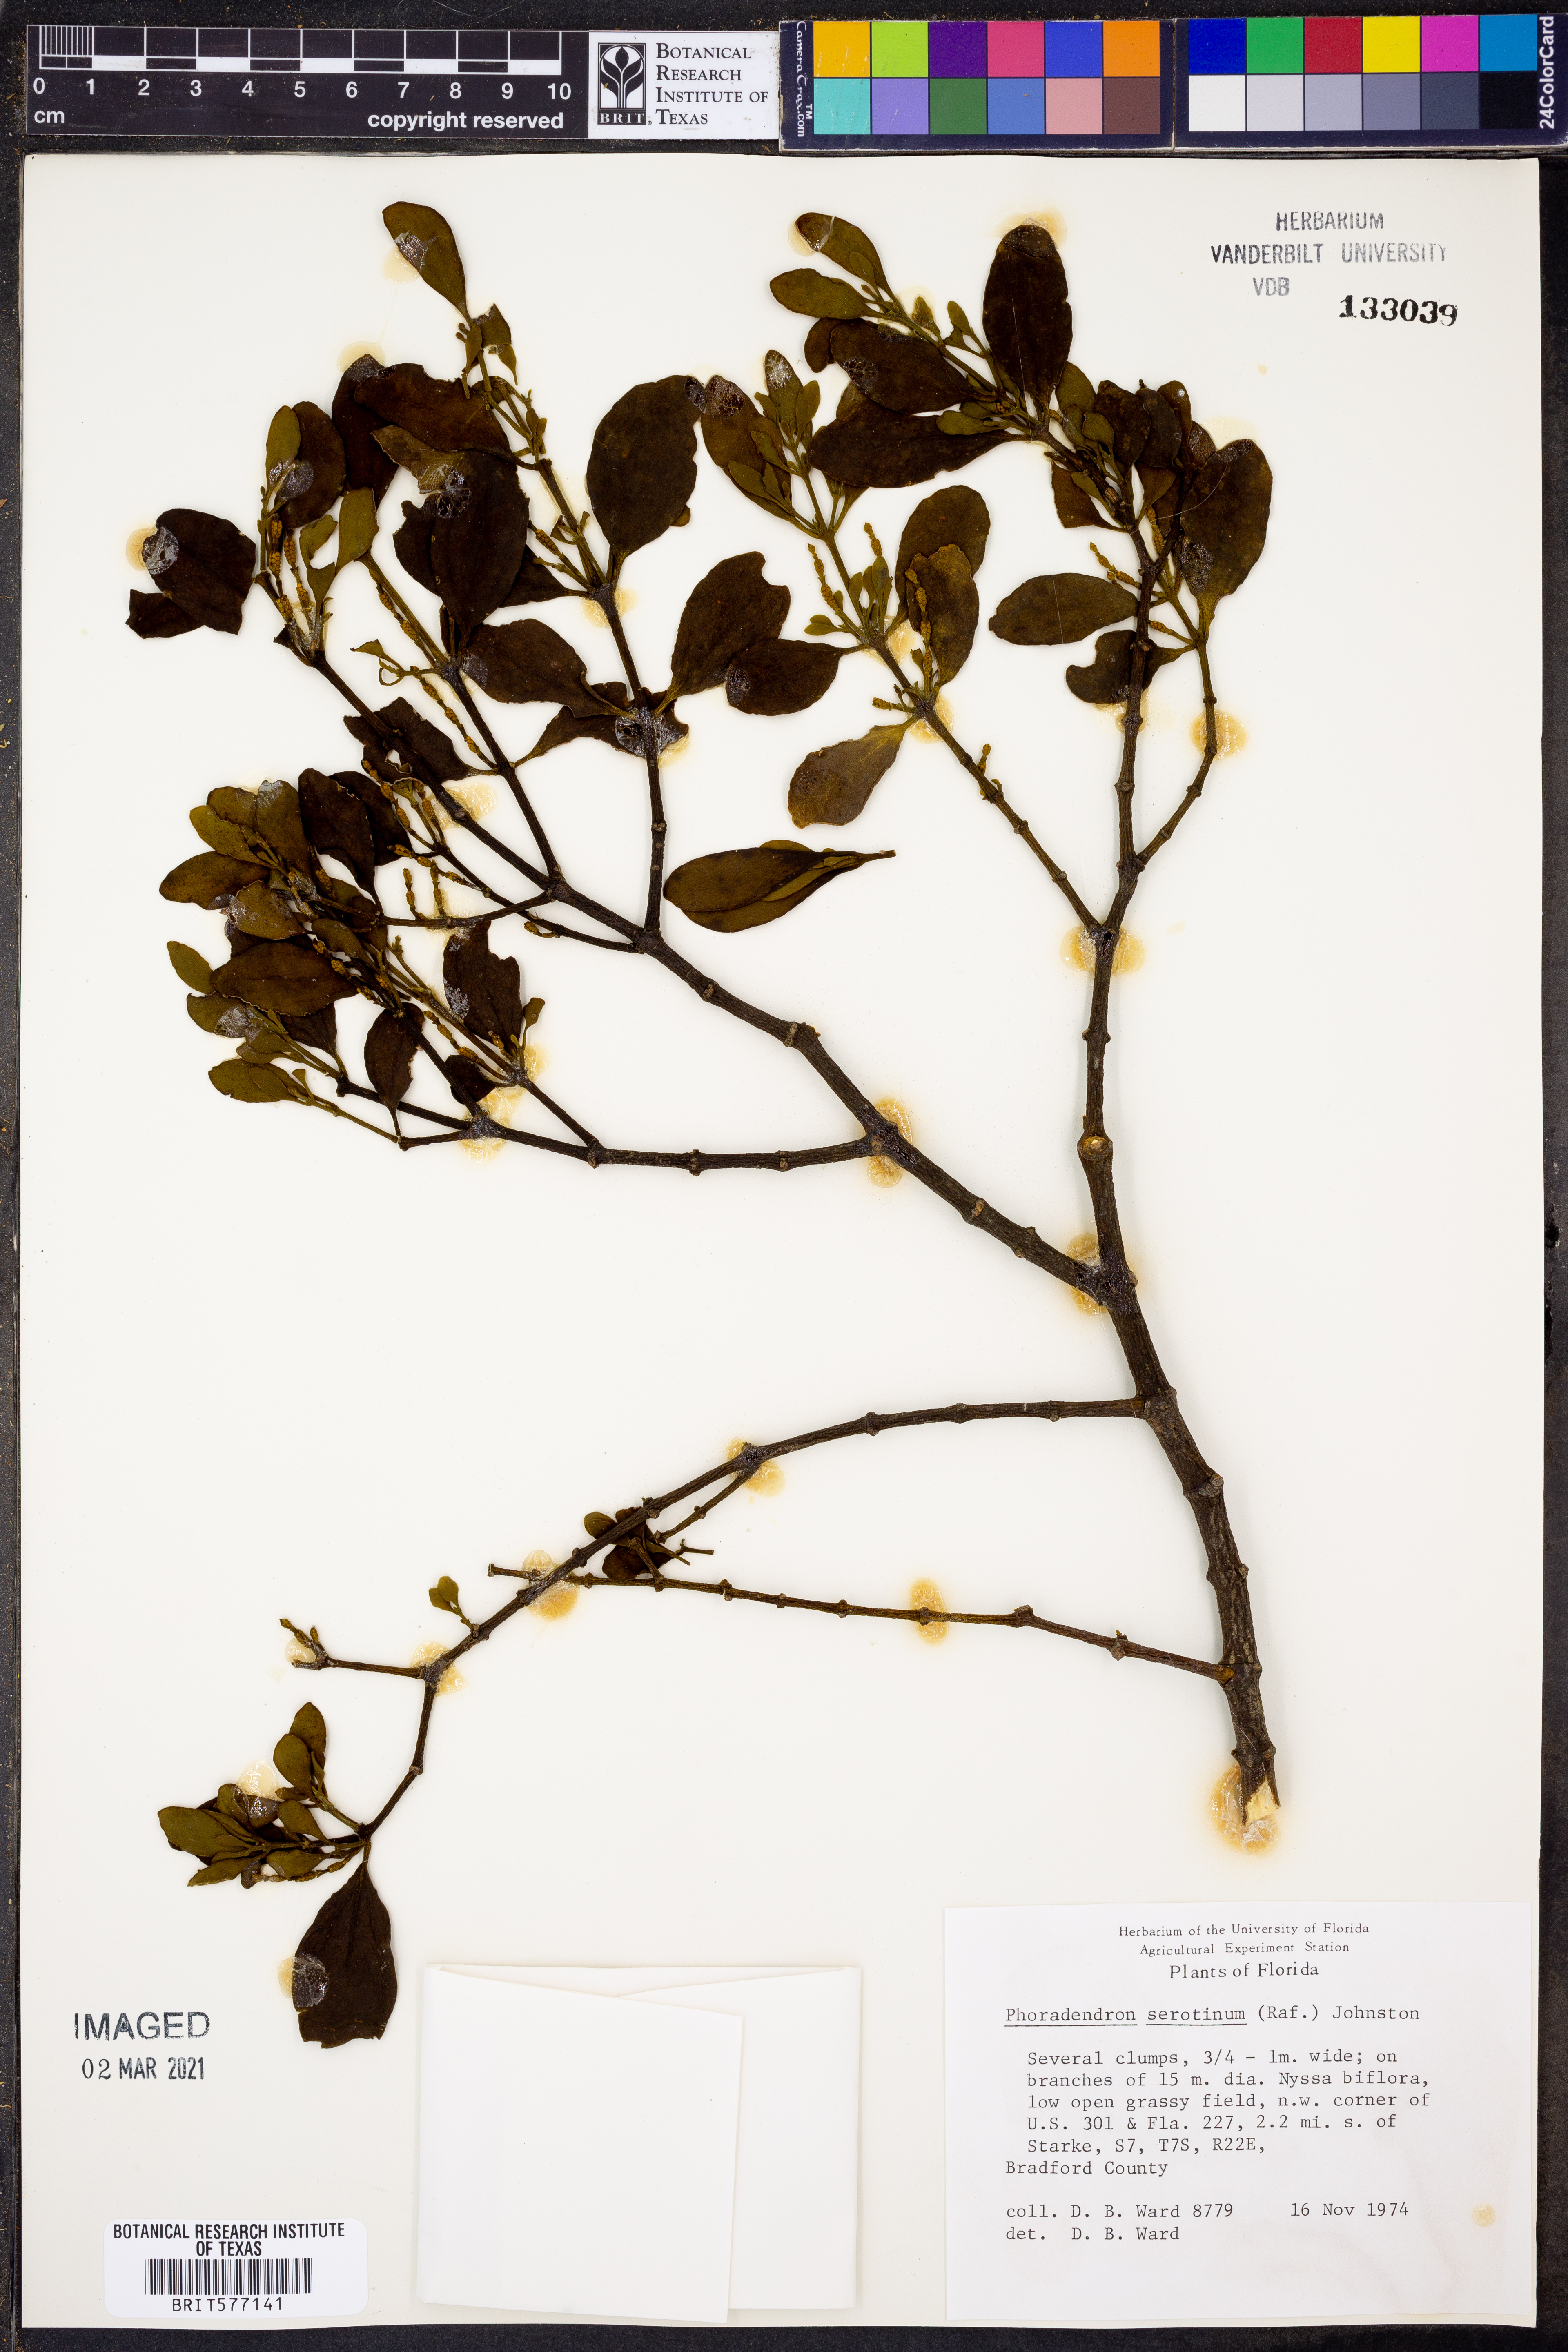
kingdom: Plantae
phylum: Tracheophyta
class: Magnoliopsida
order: Santalales
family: Viscaceae
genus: Phoradendron
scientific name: Phoradendron leucarpum
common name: Pacific mistletoe
